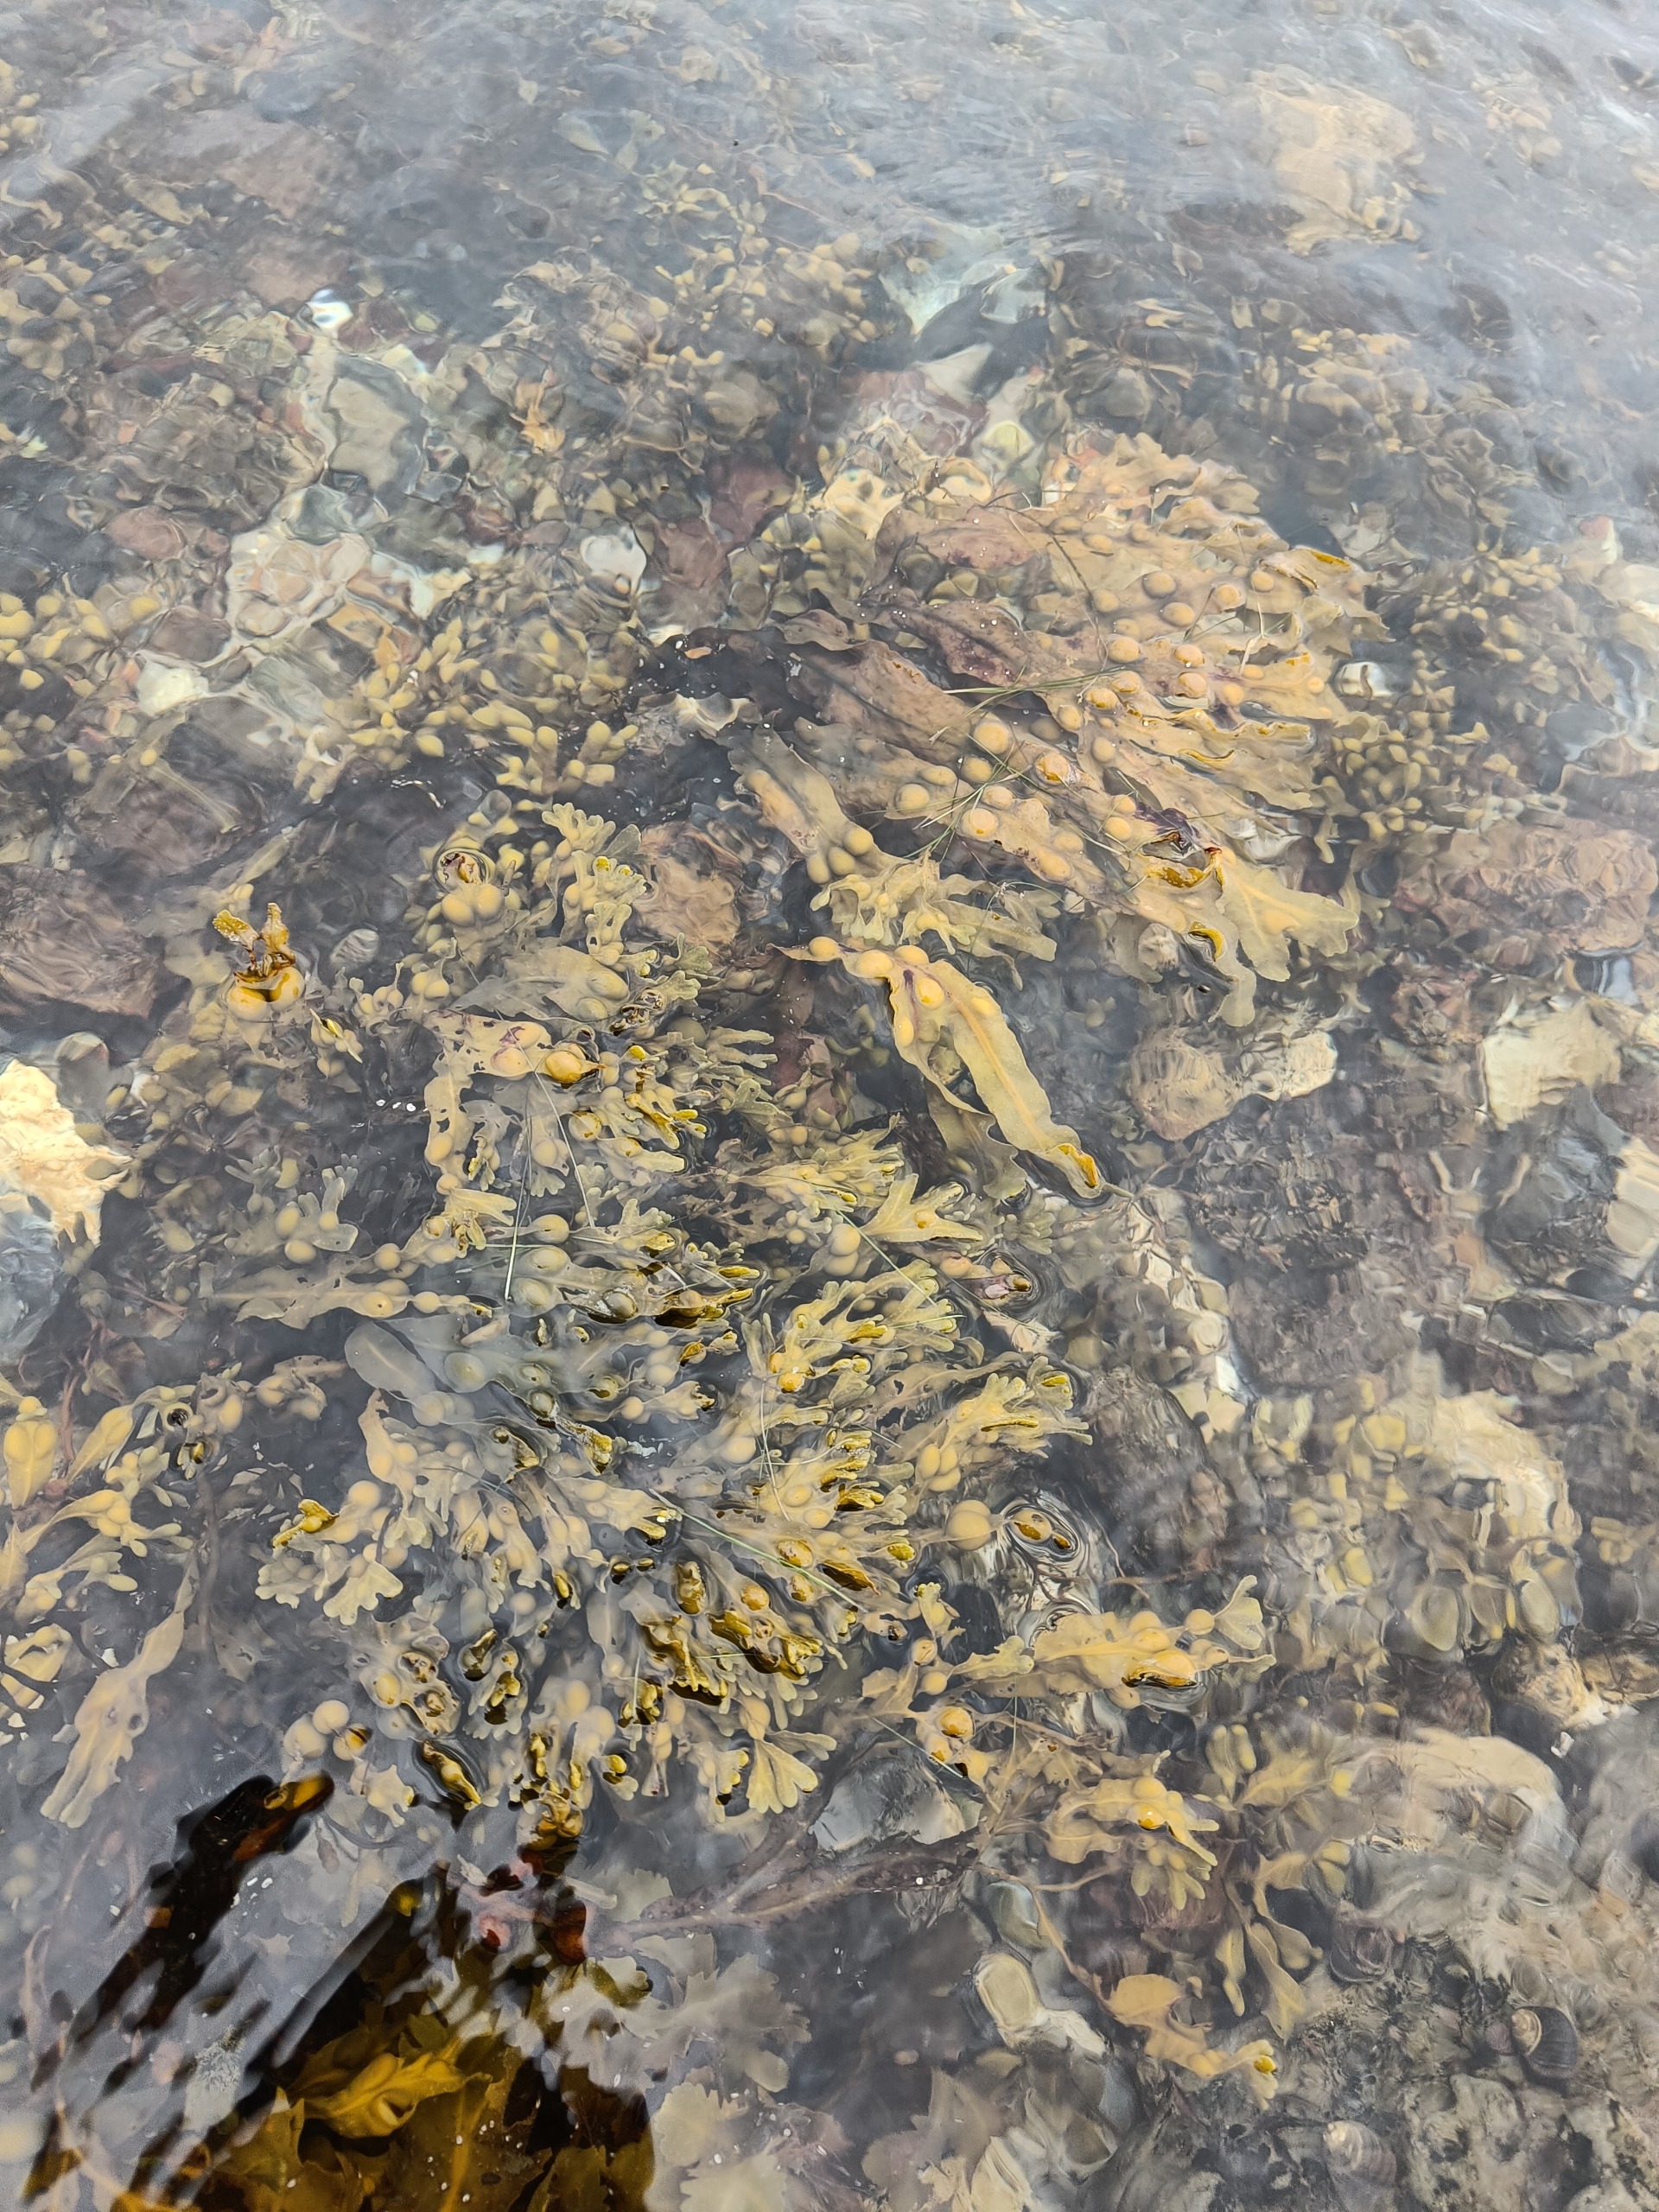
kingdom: Chromista
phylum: Ochrophyta
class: Phaeophyceae
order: Fucales
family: Fucaceae
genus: Fucus
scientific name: Fucus vesiculosus
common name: Blæretang
